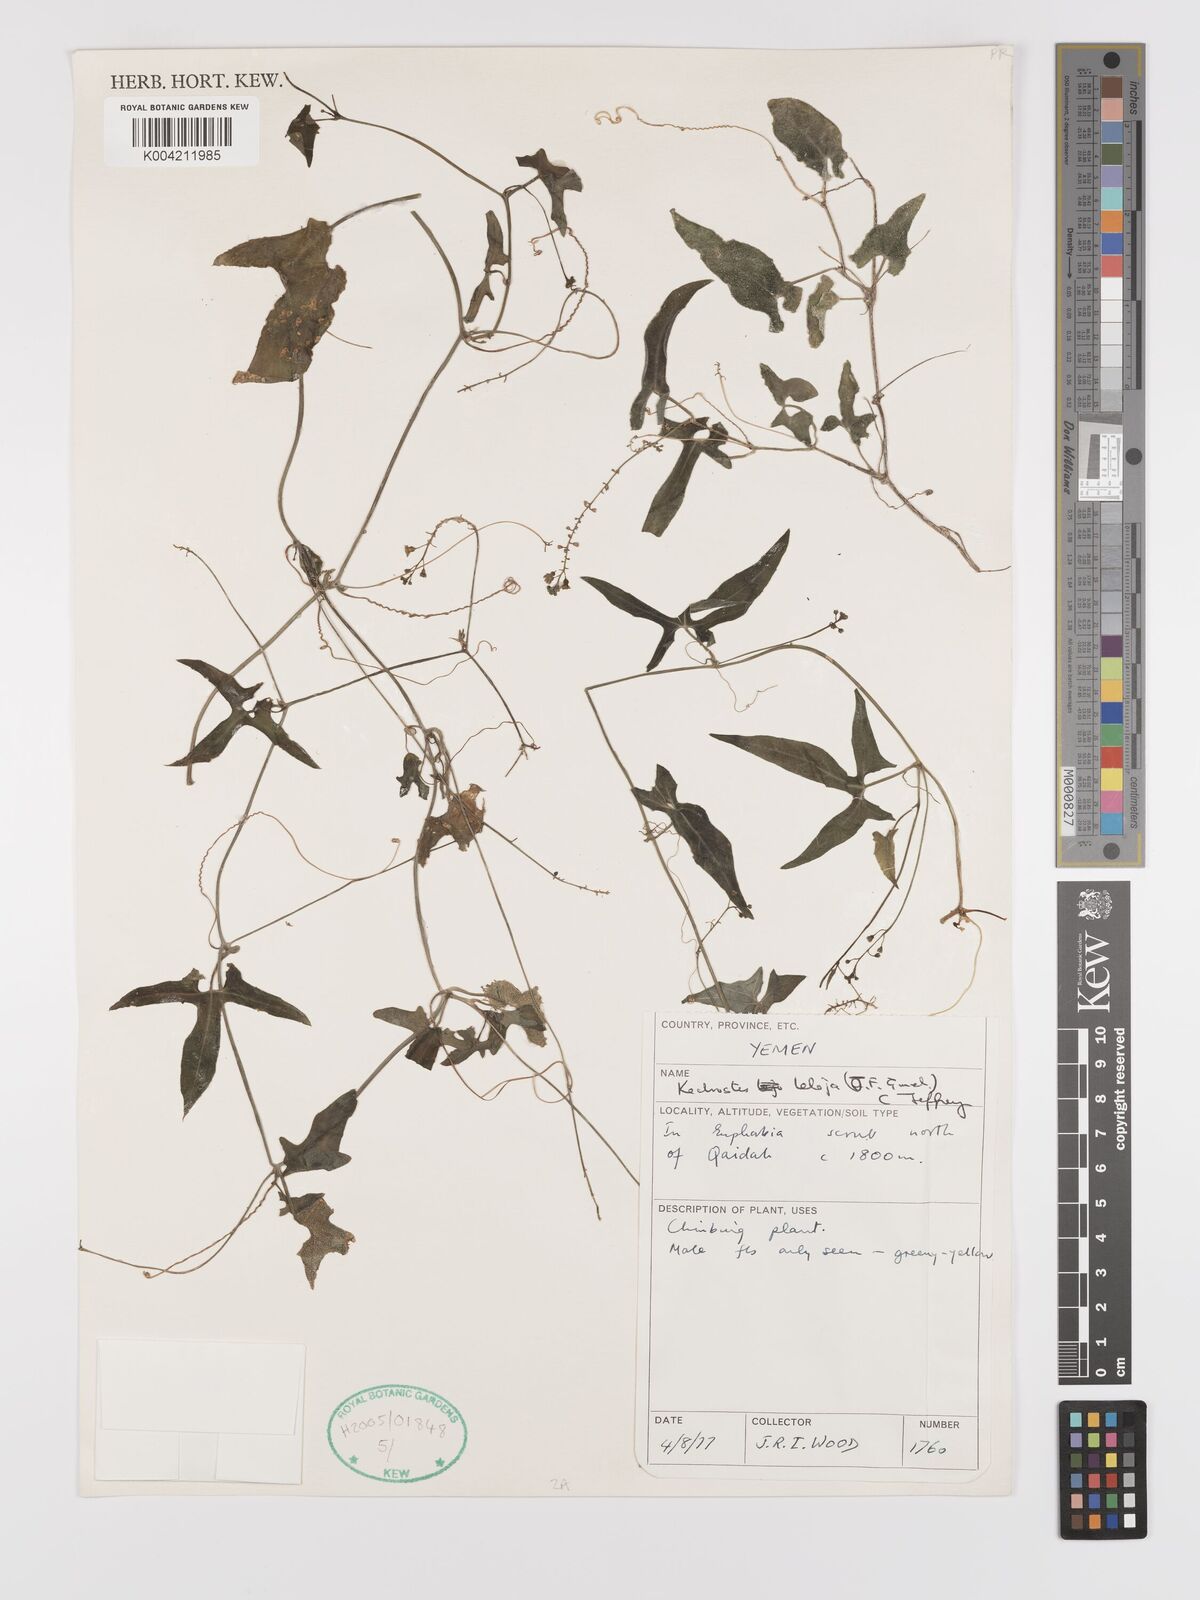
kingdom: Plantae
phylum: Tracheophyta
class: Magnoliopsida
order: Cucurbitales
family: Cucurbitaceae
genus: Kedrostis
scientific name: Kedrostis leloja
